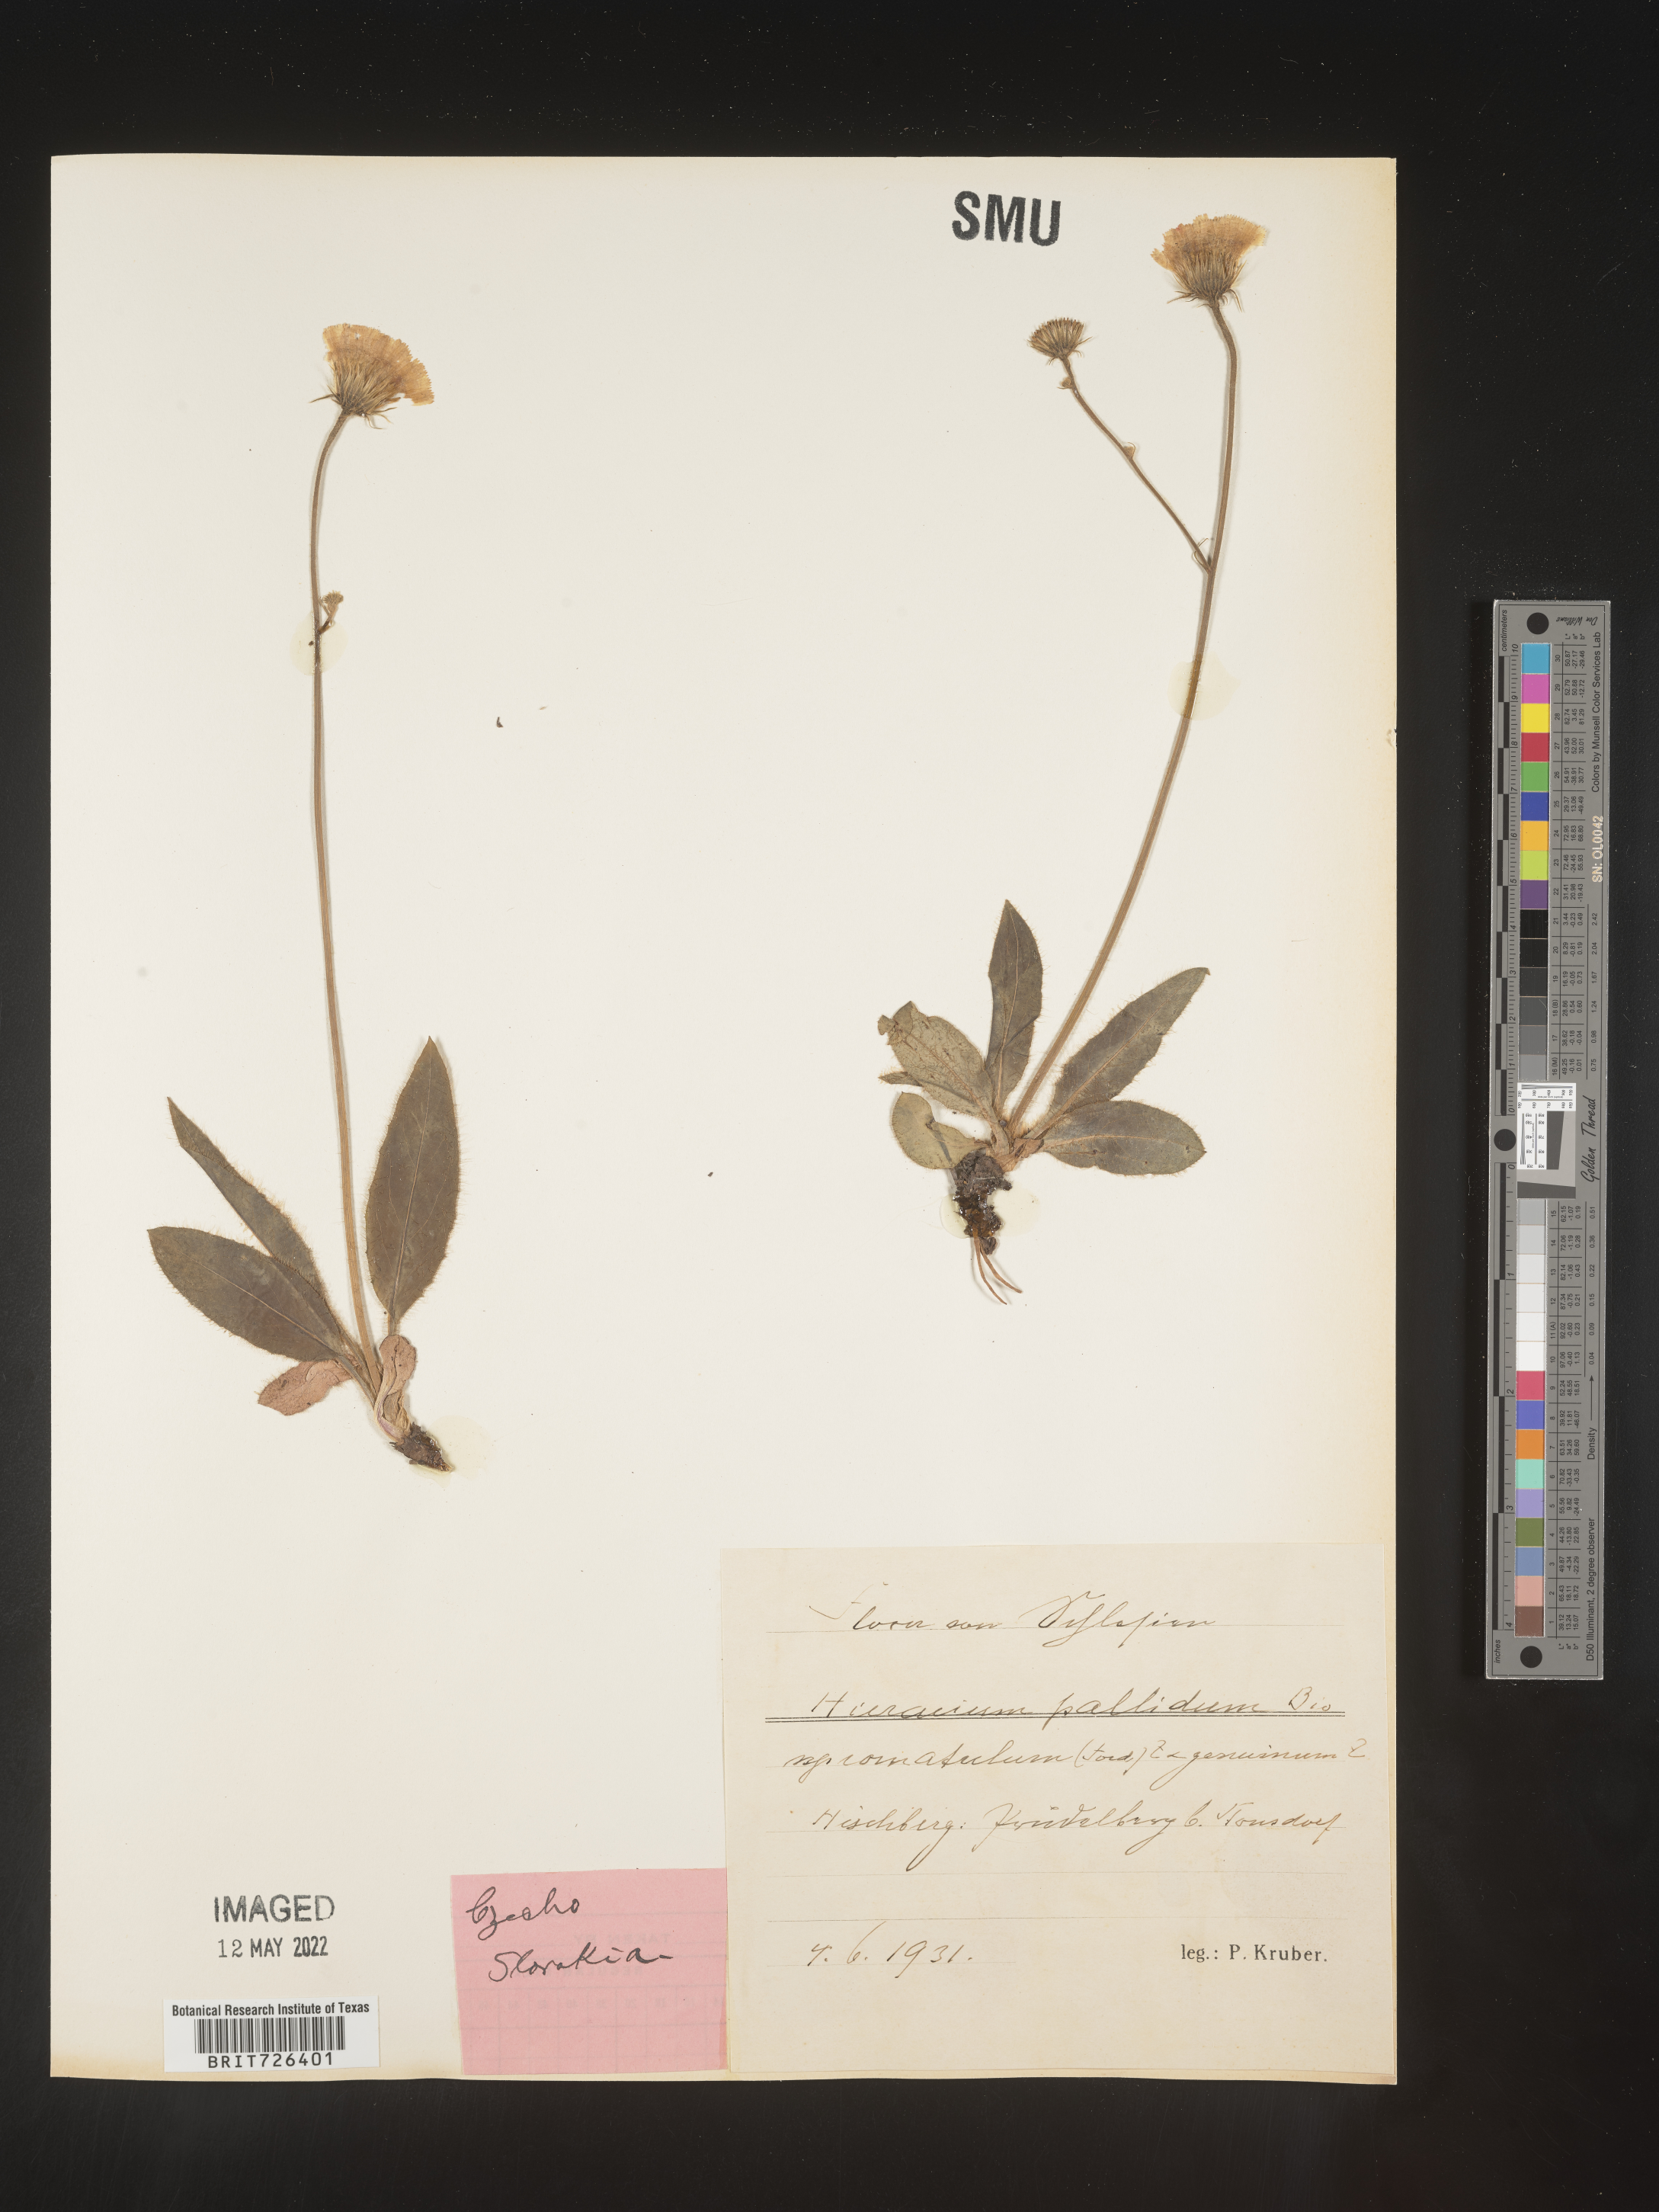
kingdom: Plantae
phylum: Tracheophyta
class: Magnoliopsida
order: Asterales
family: Asteraceae
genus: Hieracium
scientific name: Hieracium
